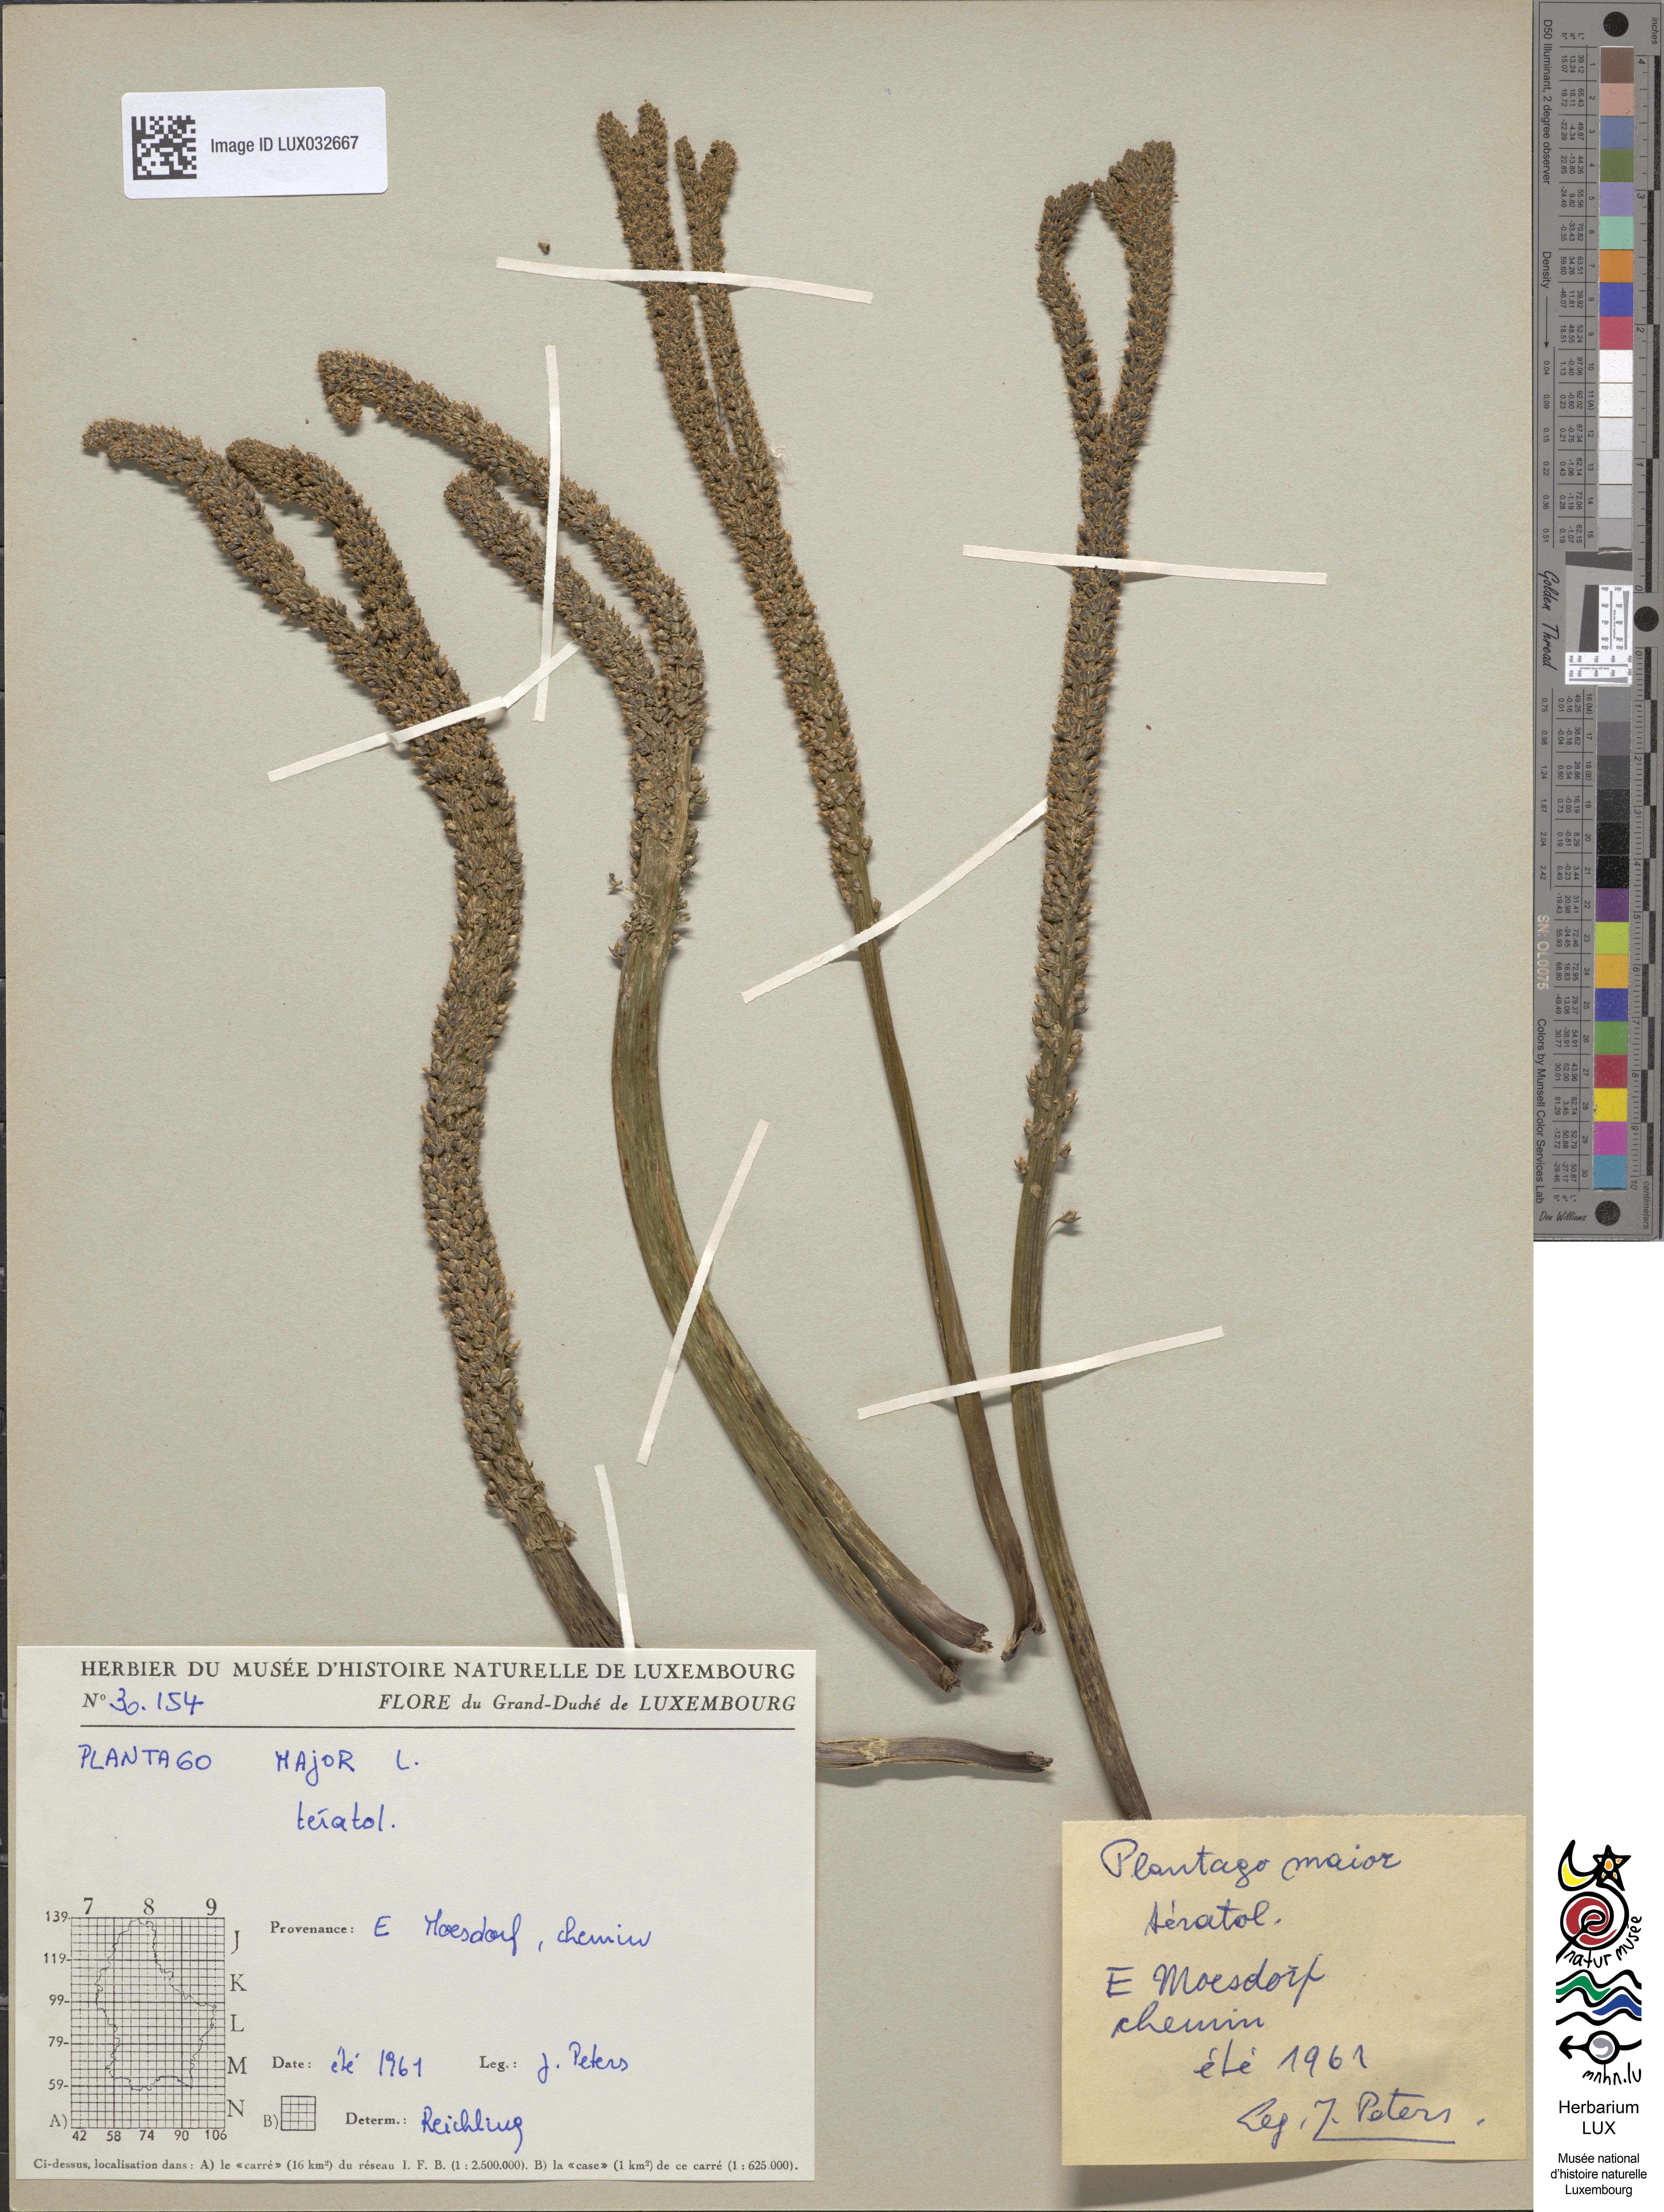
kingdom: Plantae
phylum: Tracheophyta
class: Magnoliopsida
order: Lamiales
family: Plantaginaceae
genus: Plantago
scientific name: Plantago major
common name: Common plantain
